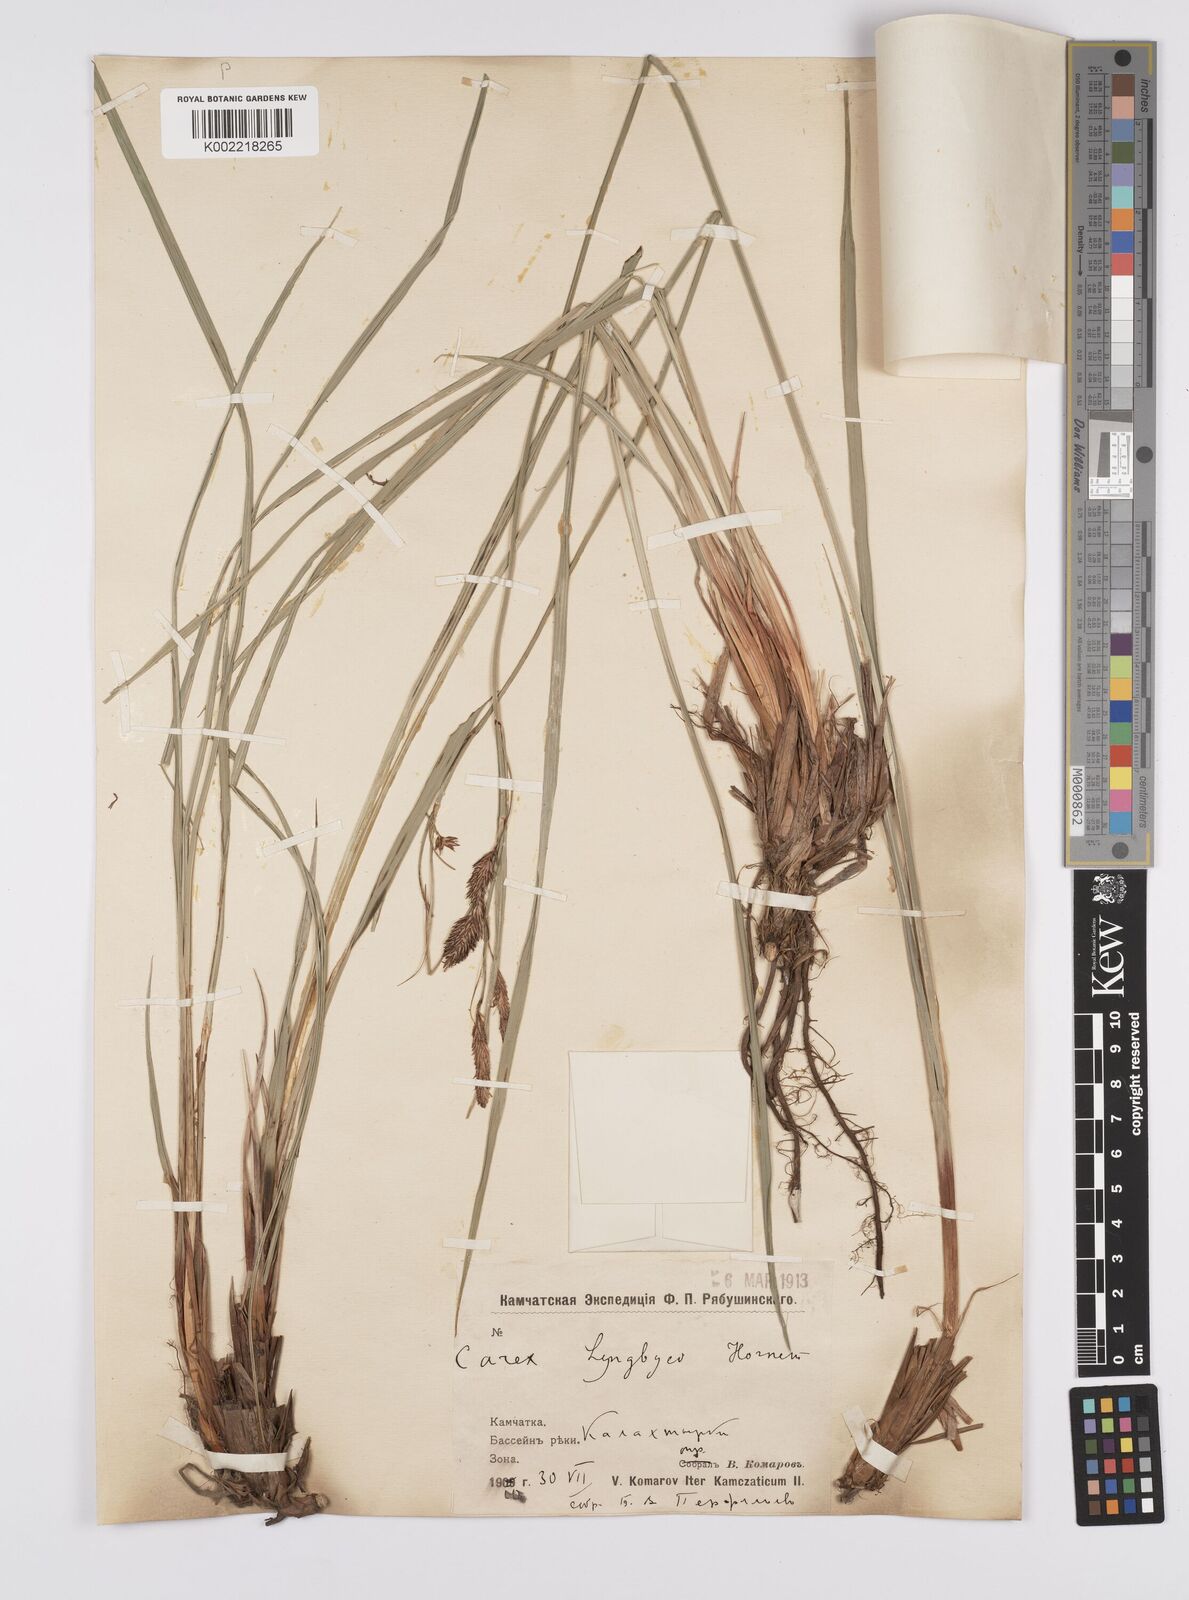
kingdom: Plantae
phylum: Tracheophyta
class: Liliopsida
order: Poales
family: Cyperaceae
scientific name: Cyperaceae
